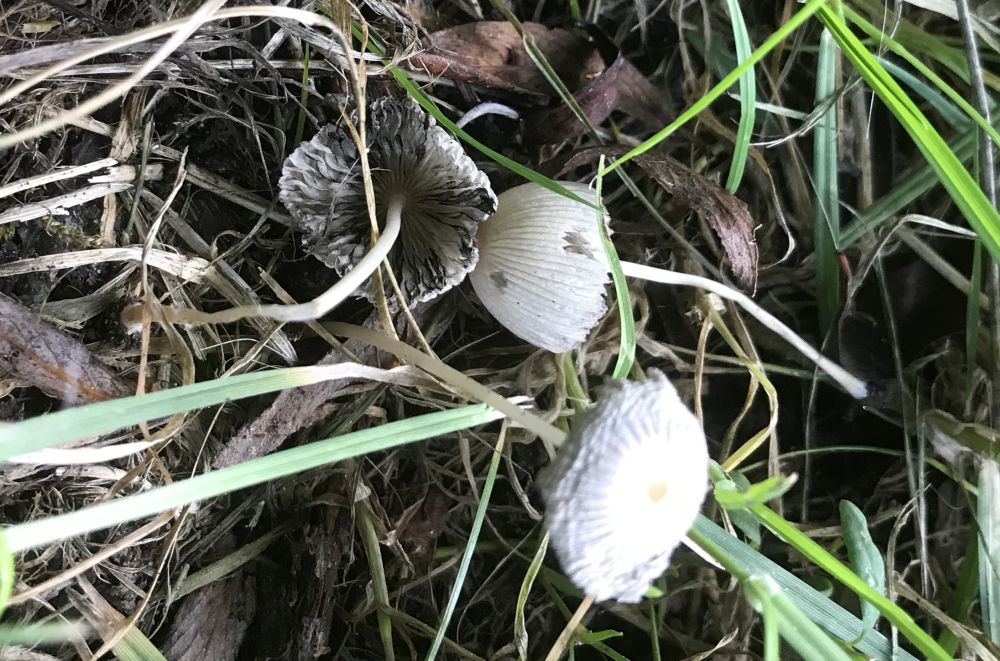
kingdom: Fungi
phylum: Basidiomycota
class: Agaricomycetes
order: Agaricales
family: Psathyrellaceae
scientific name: Psathyrellaceae
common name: mørkhatfamilien
